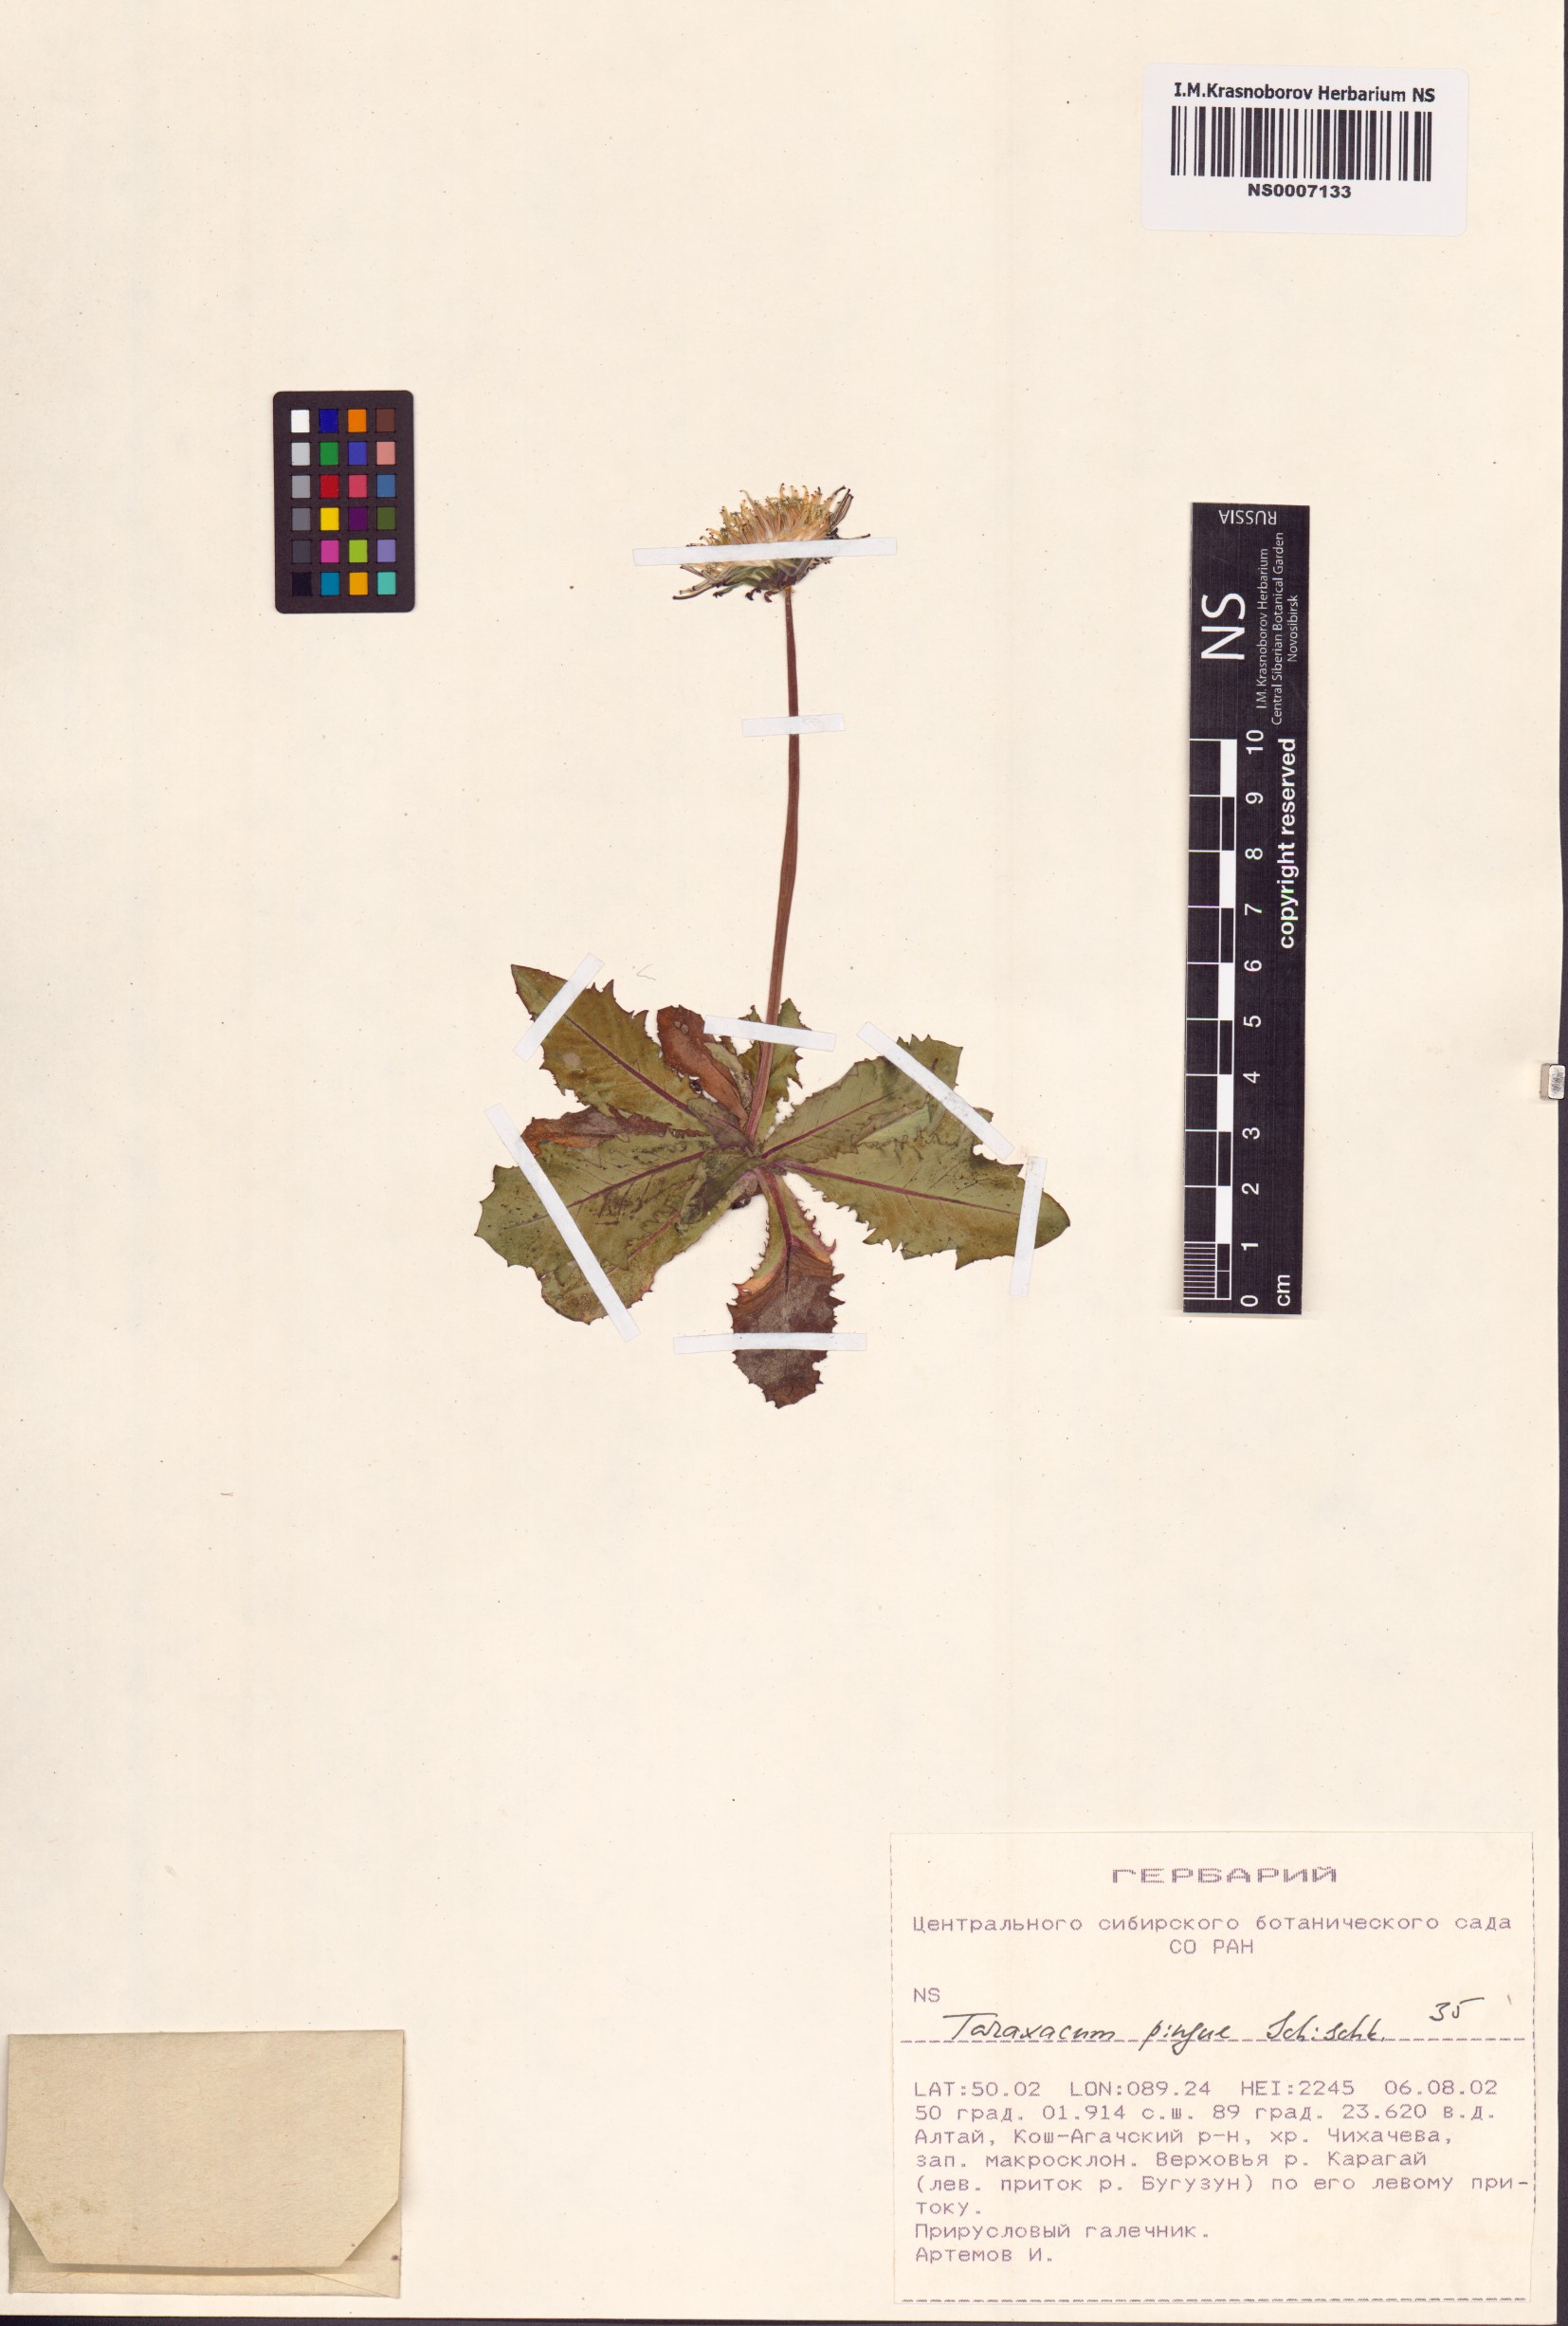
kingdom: Plantae
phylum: Tracheophyta
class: Magnoliopsida
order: Asterales
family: Asteraceae
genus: Taraxacum
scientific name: Taraxacum pingue
